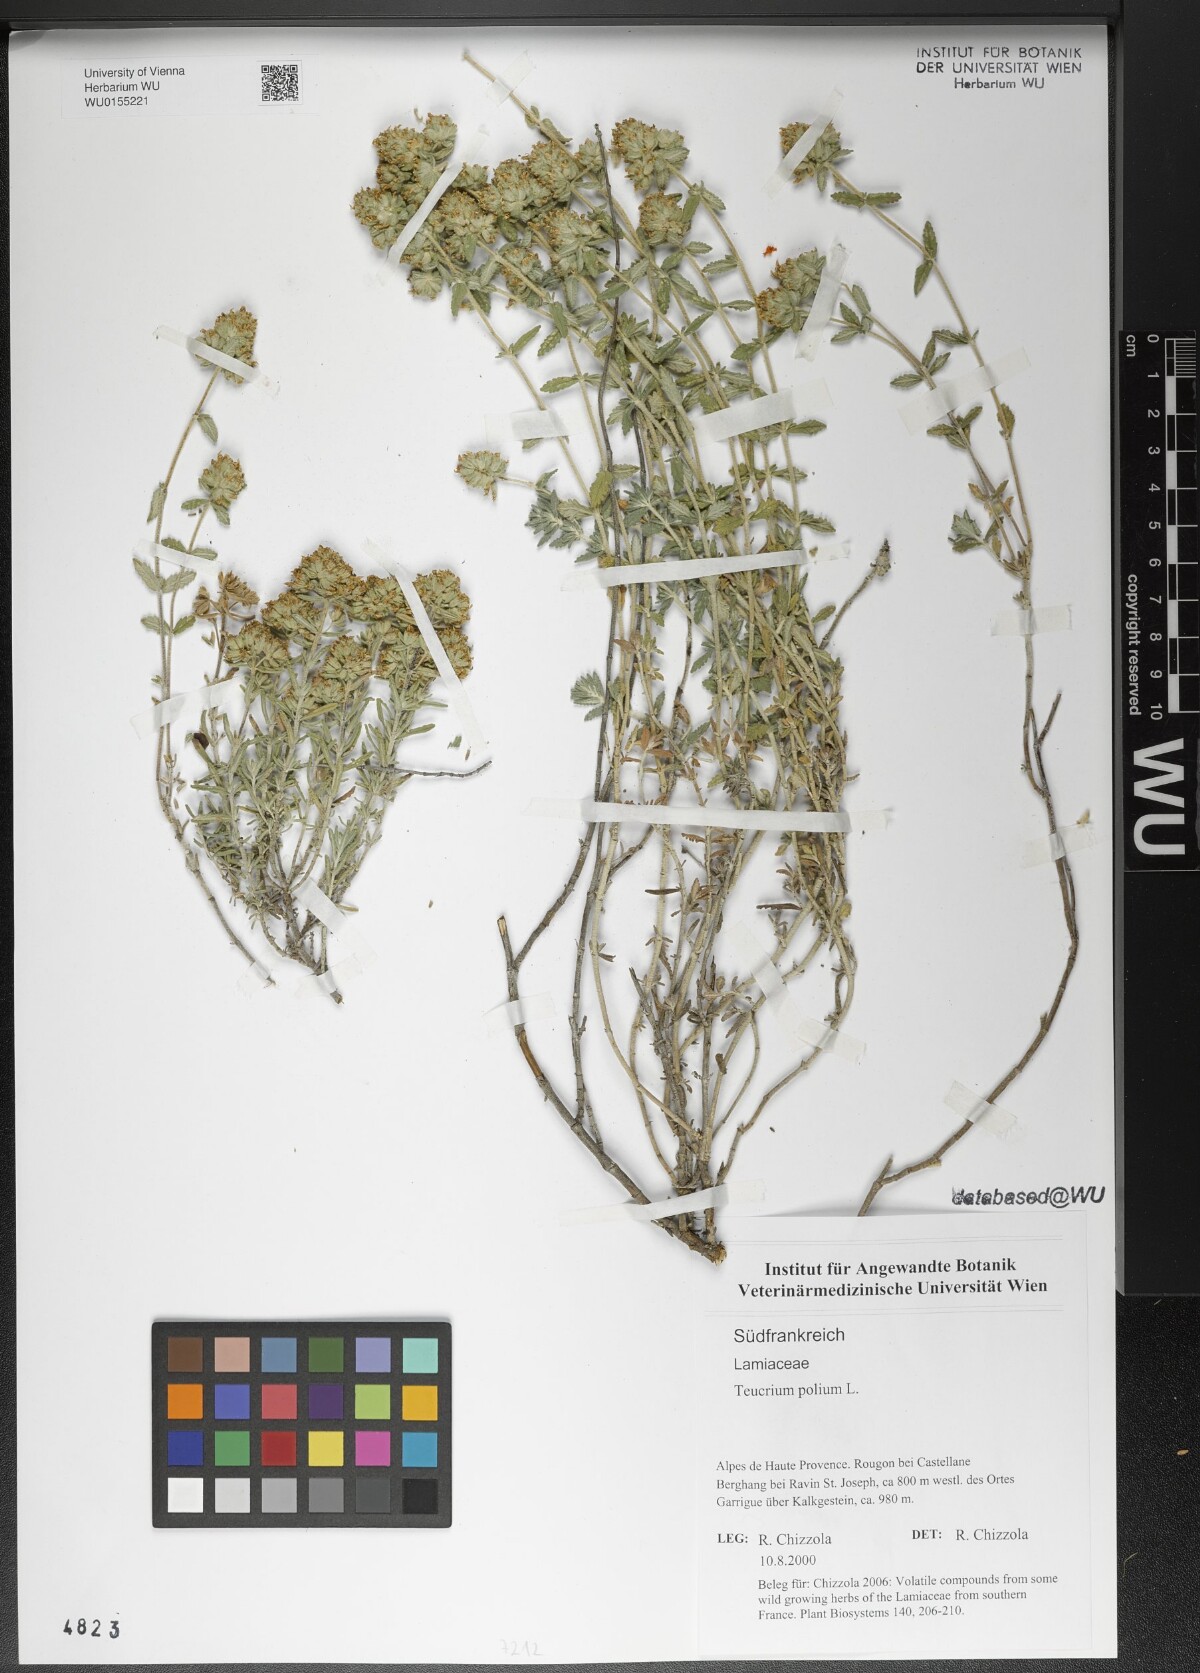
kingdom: Plantae
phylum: Tracheophyta
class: Magnoliopsida
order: Lamiales
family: Lamiaceae
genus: Teucrium
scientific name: Teucrium polium
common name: Poley
